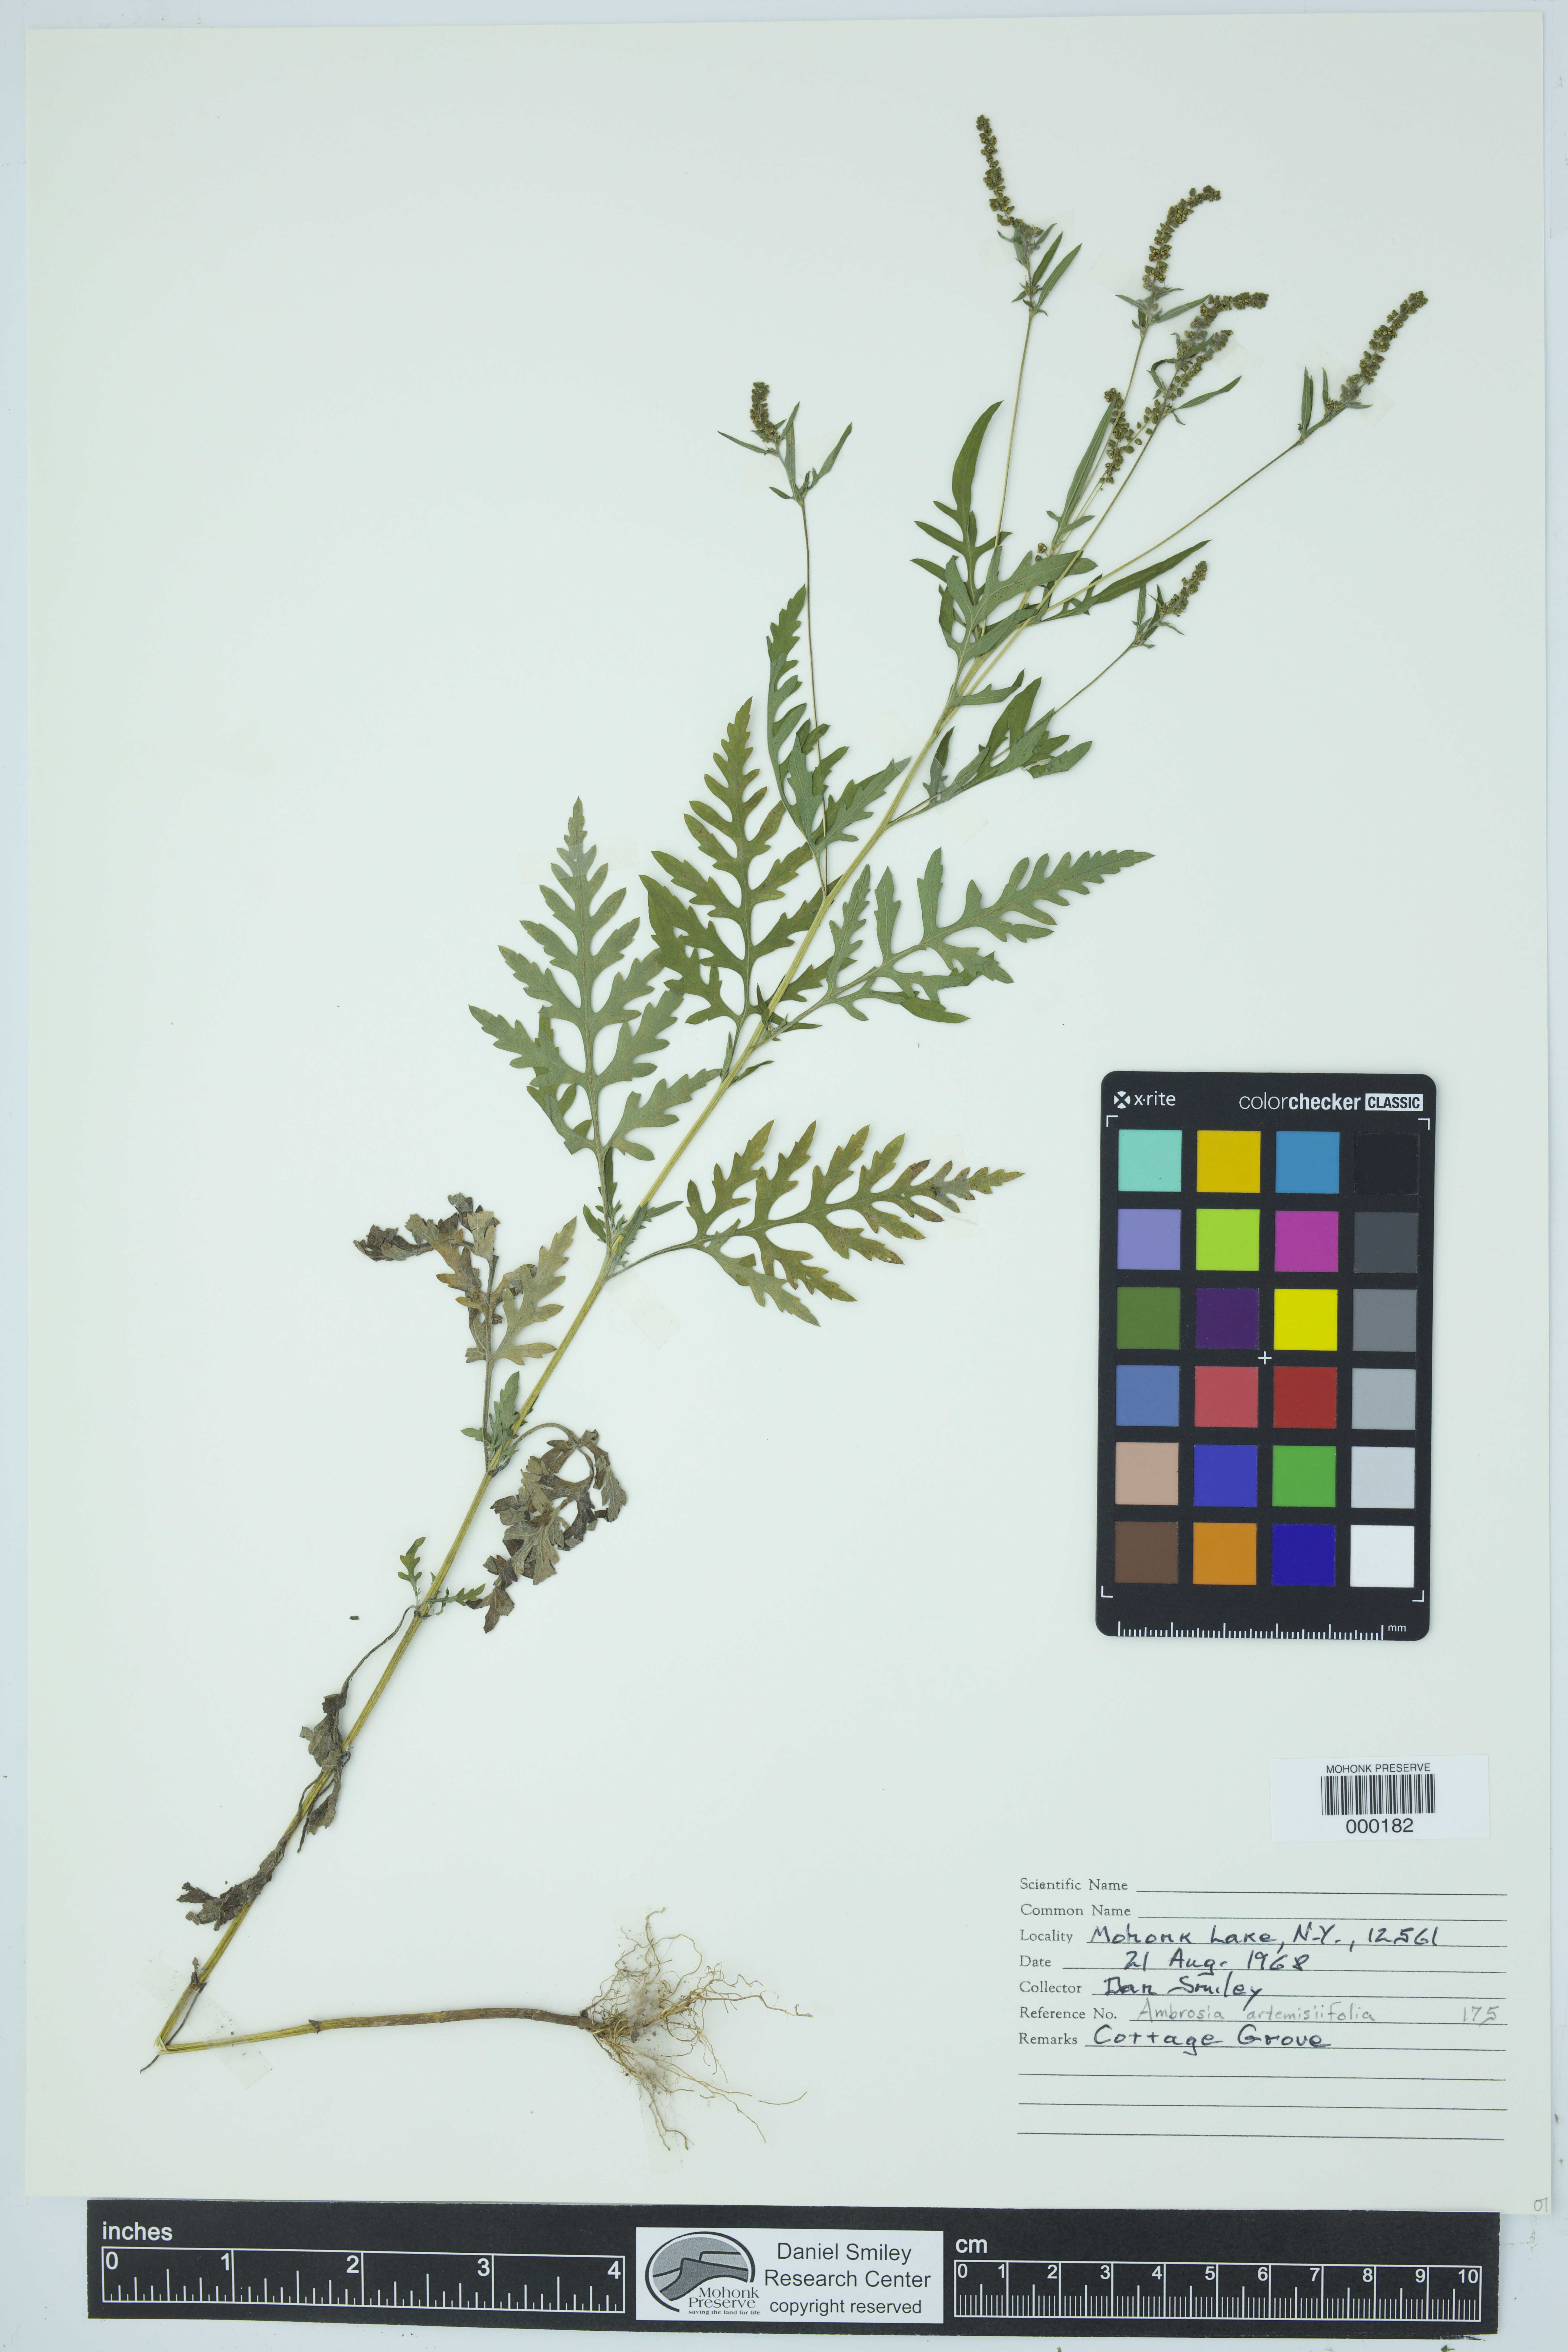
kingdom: Plantae
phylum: Tracheophyta
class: Magnoliopsida
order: Asterales
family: Asteraceae
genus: Ambrosia
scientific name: Ambrosia artemisiifolia
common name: Annual ragweed
